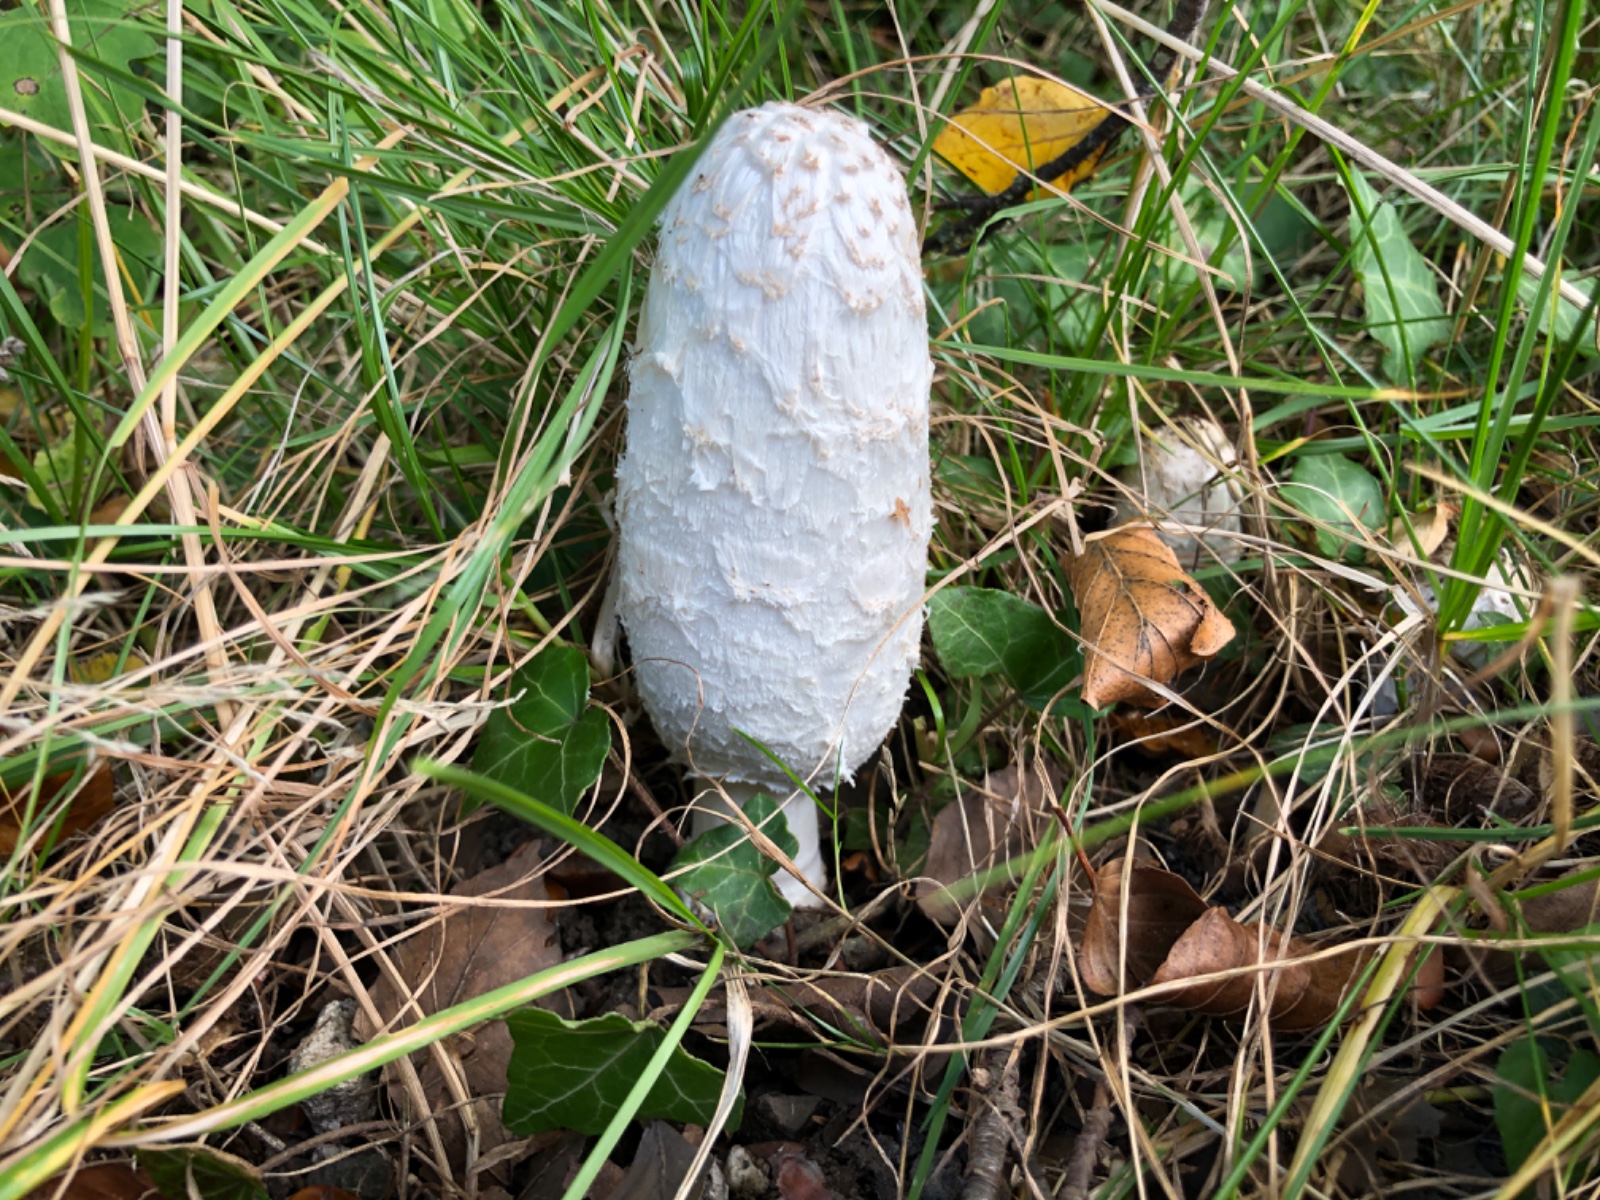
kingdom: Fungi
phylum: Basidiomycota
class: Agaricomycetes
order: Agaricales
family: Agaricaceae
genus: Coprinus
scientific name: Coprinus comatus
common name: stor parykhat
